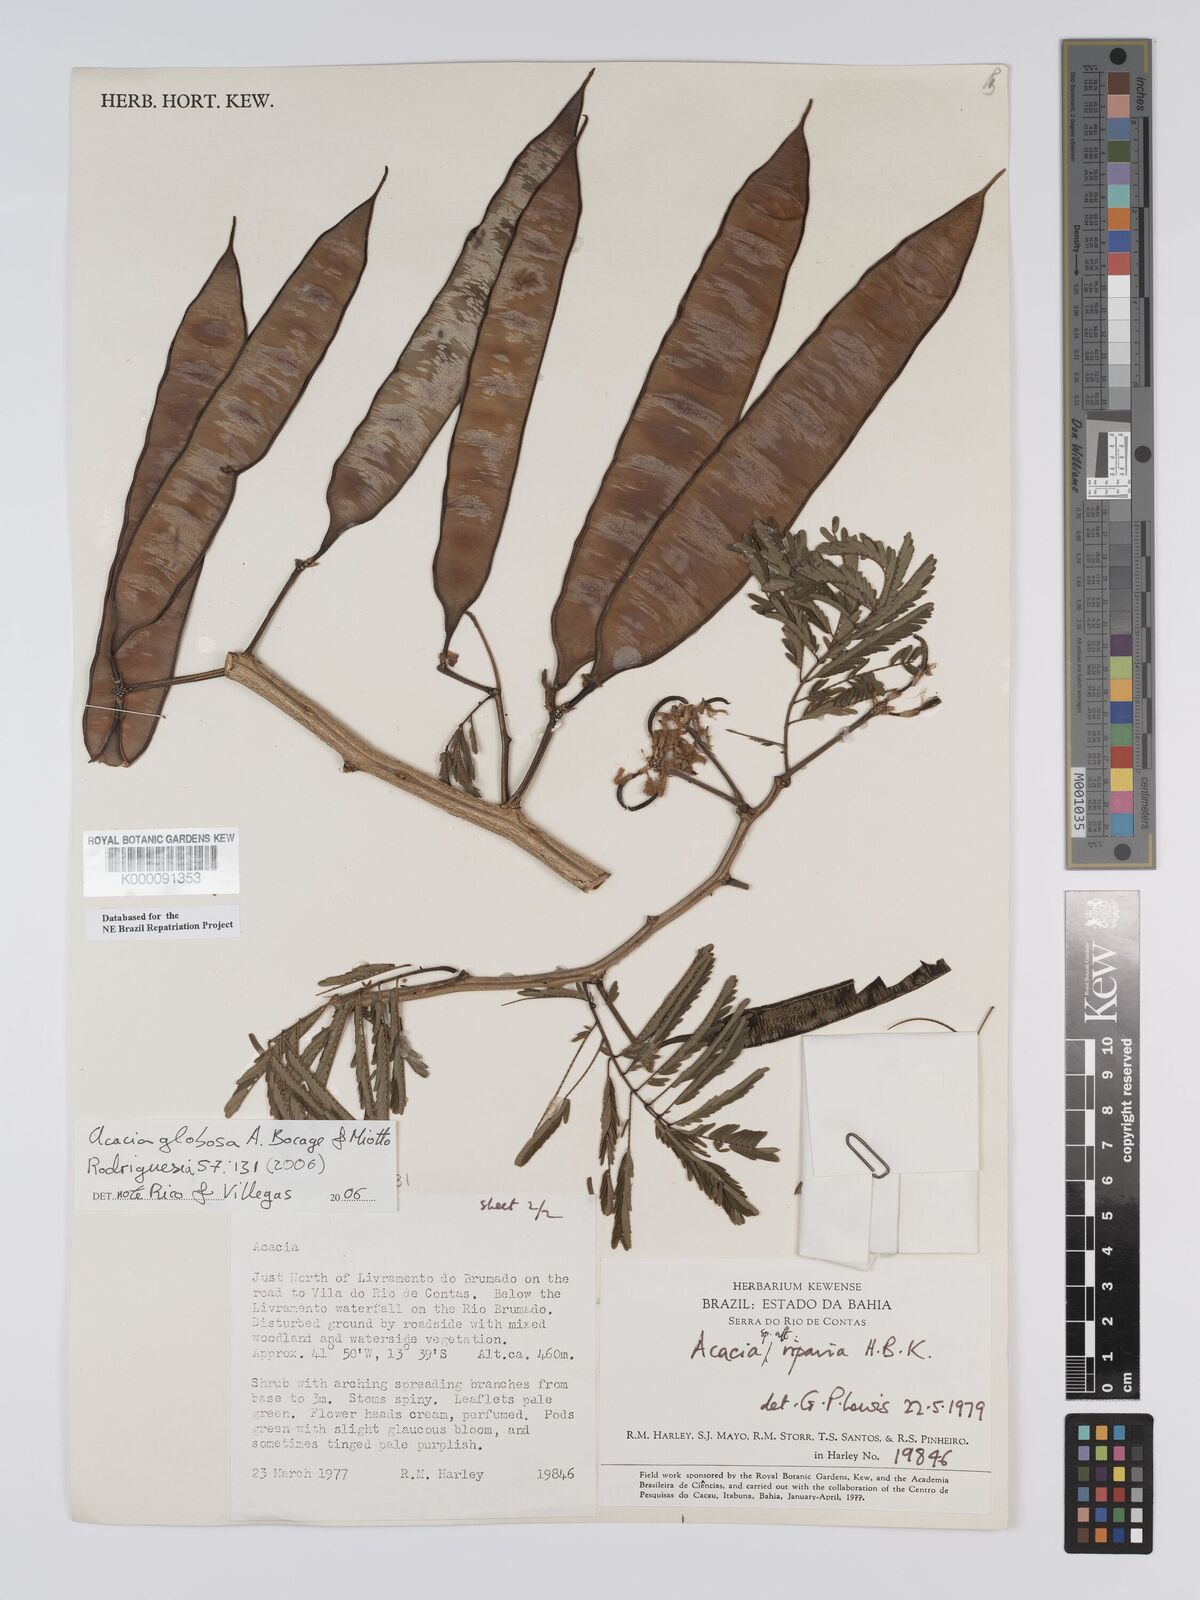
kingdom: Plantae
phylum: Tracheophyta
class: Magnoliopsida
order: Fabales
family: Fabaceae
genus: Senegalia
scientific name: Senegalia globosa
